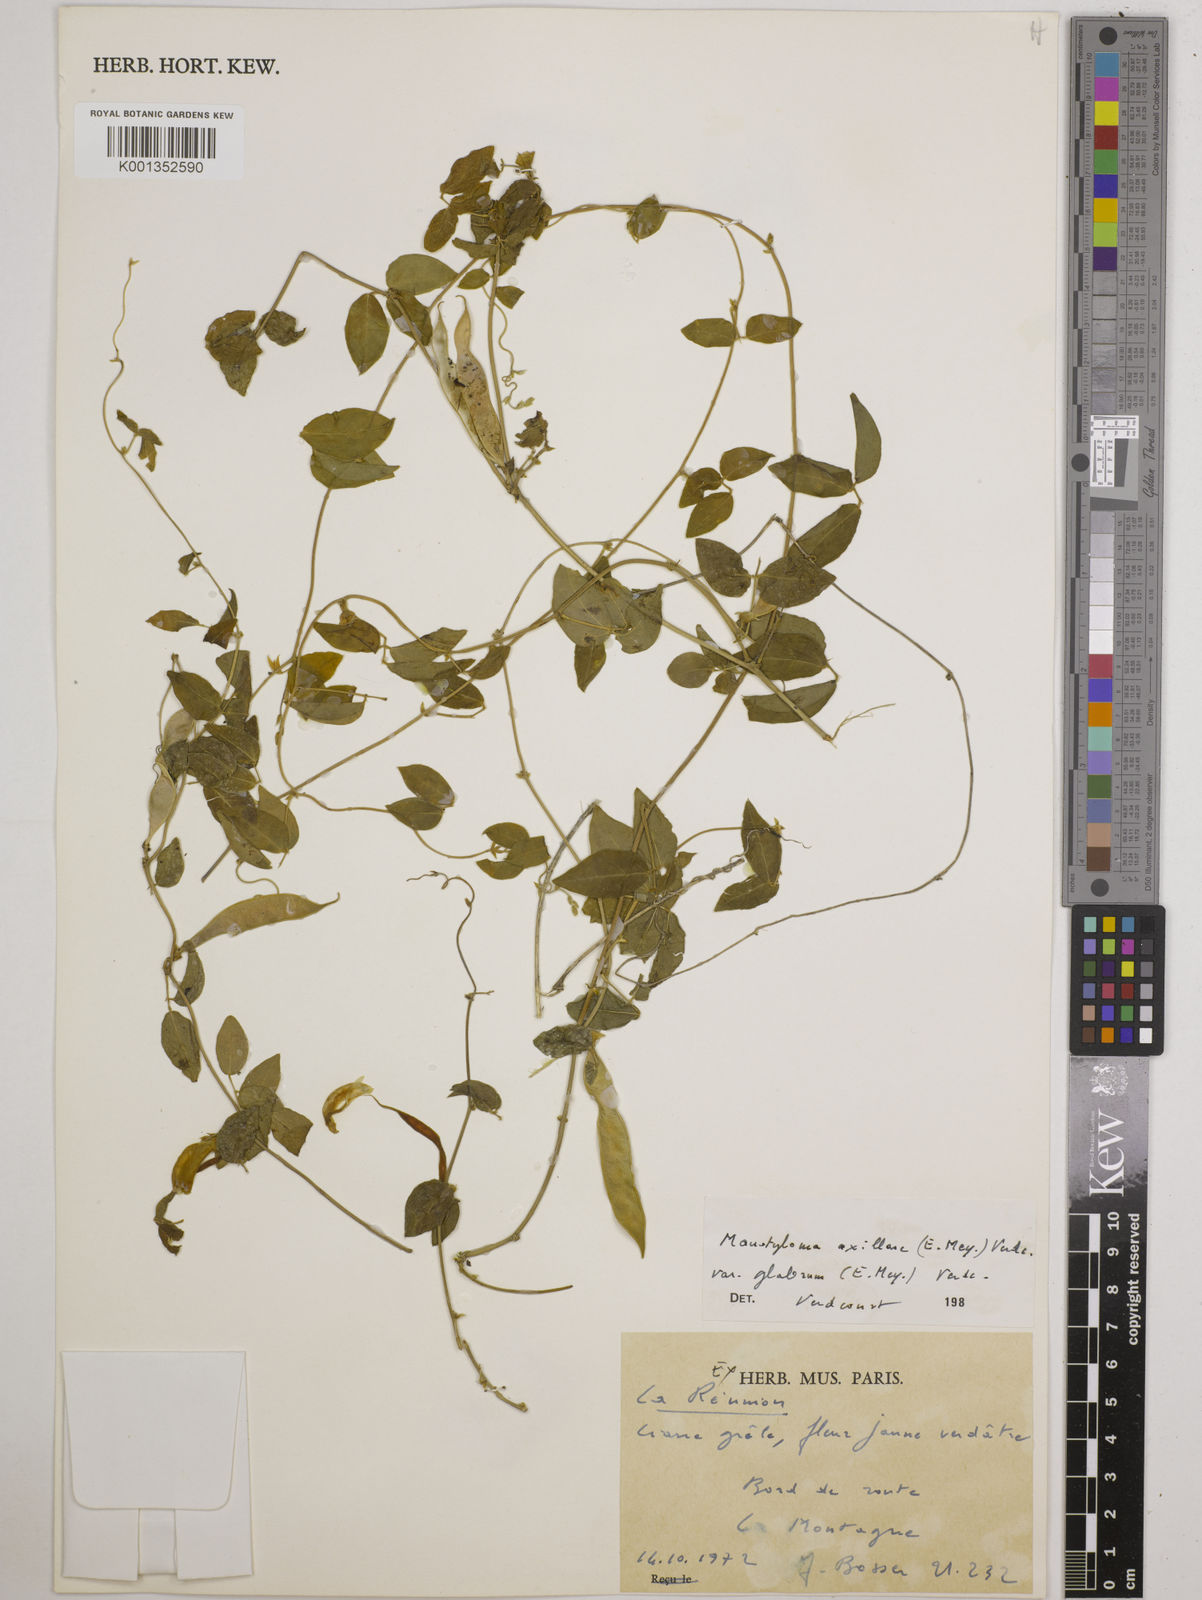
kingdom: Plantae
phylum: Tracheophyta
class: Magnoliopsida
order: Fabales
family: Fabaceae
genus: Macrotyloma
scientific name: Macrotyloma
